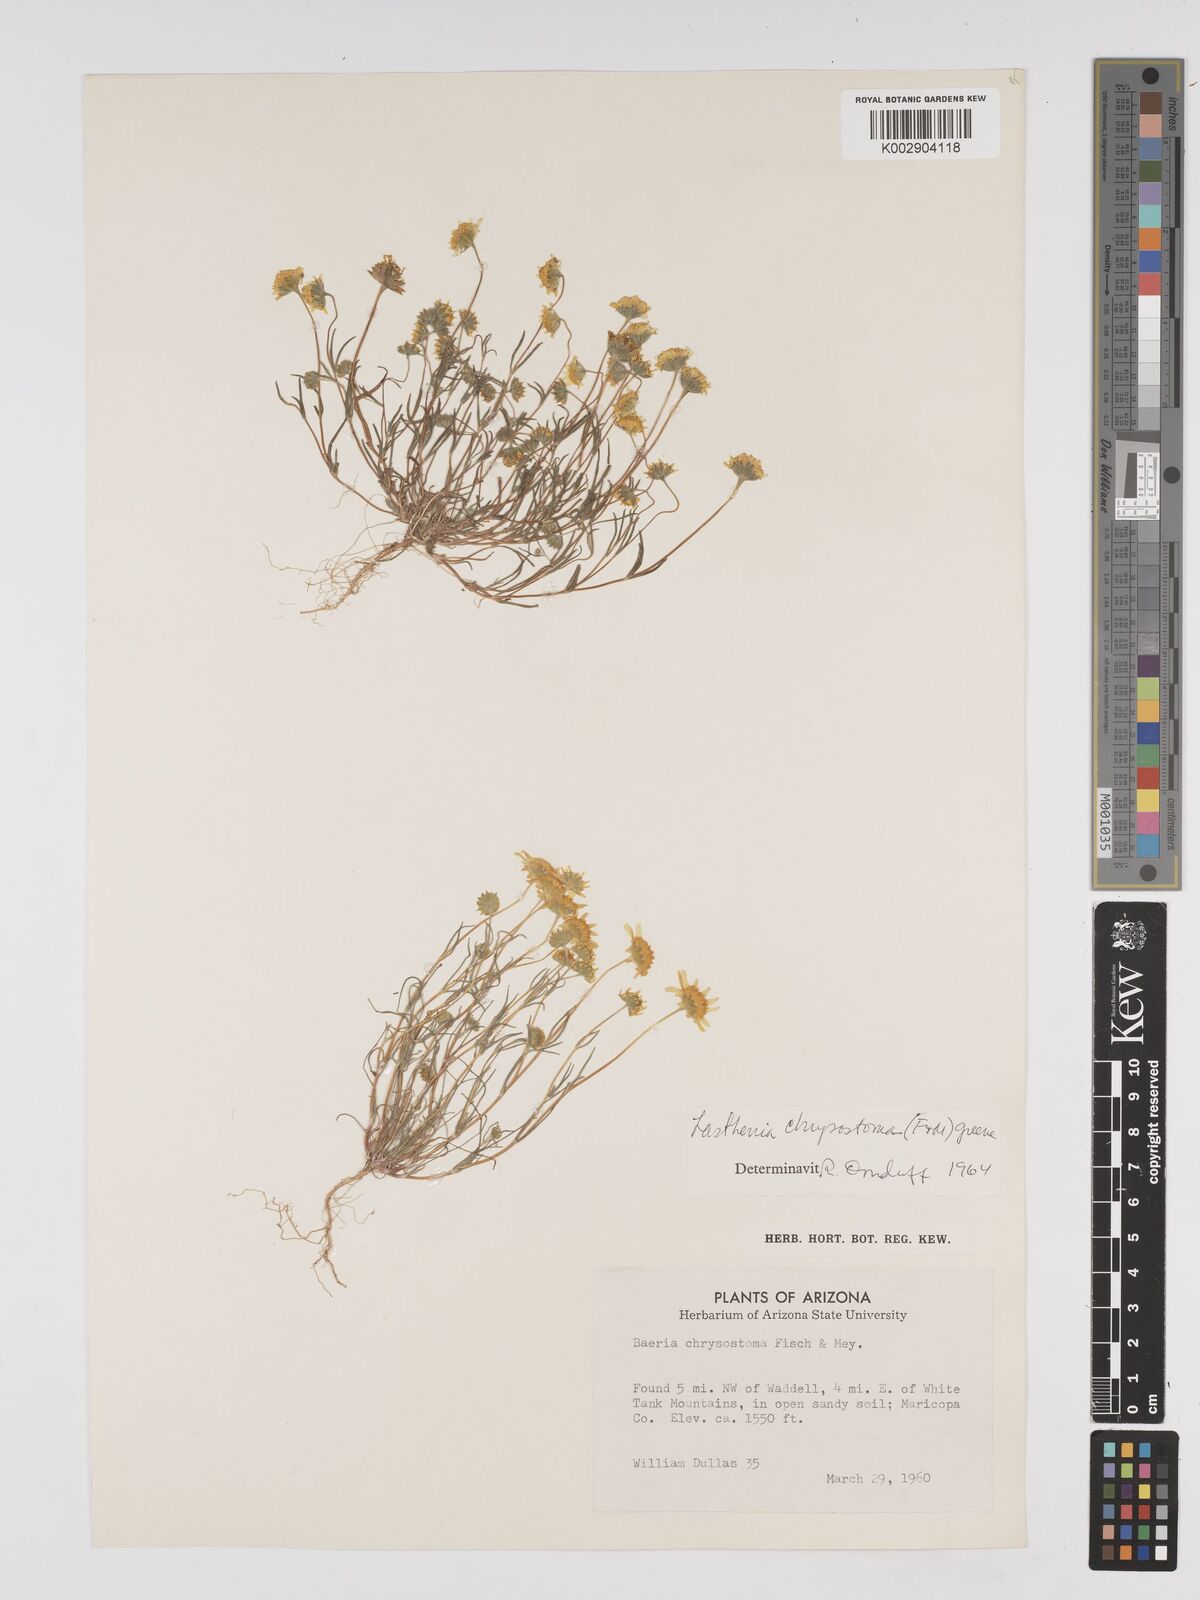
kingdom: Plantae
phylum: Tracheophyta
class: Magnoliopsida
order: Asterales
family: Asteraceae
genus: Lasthenia
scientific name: Lasthenia californica
